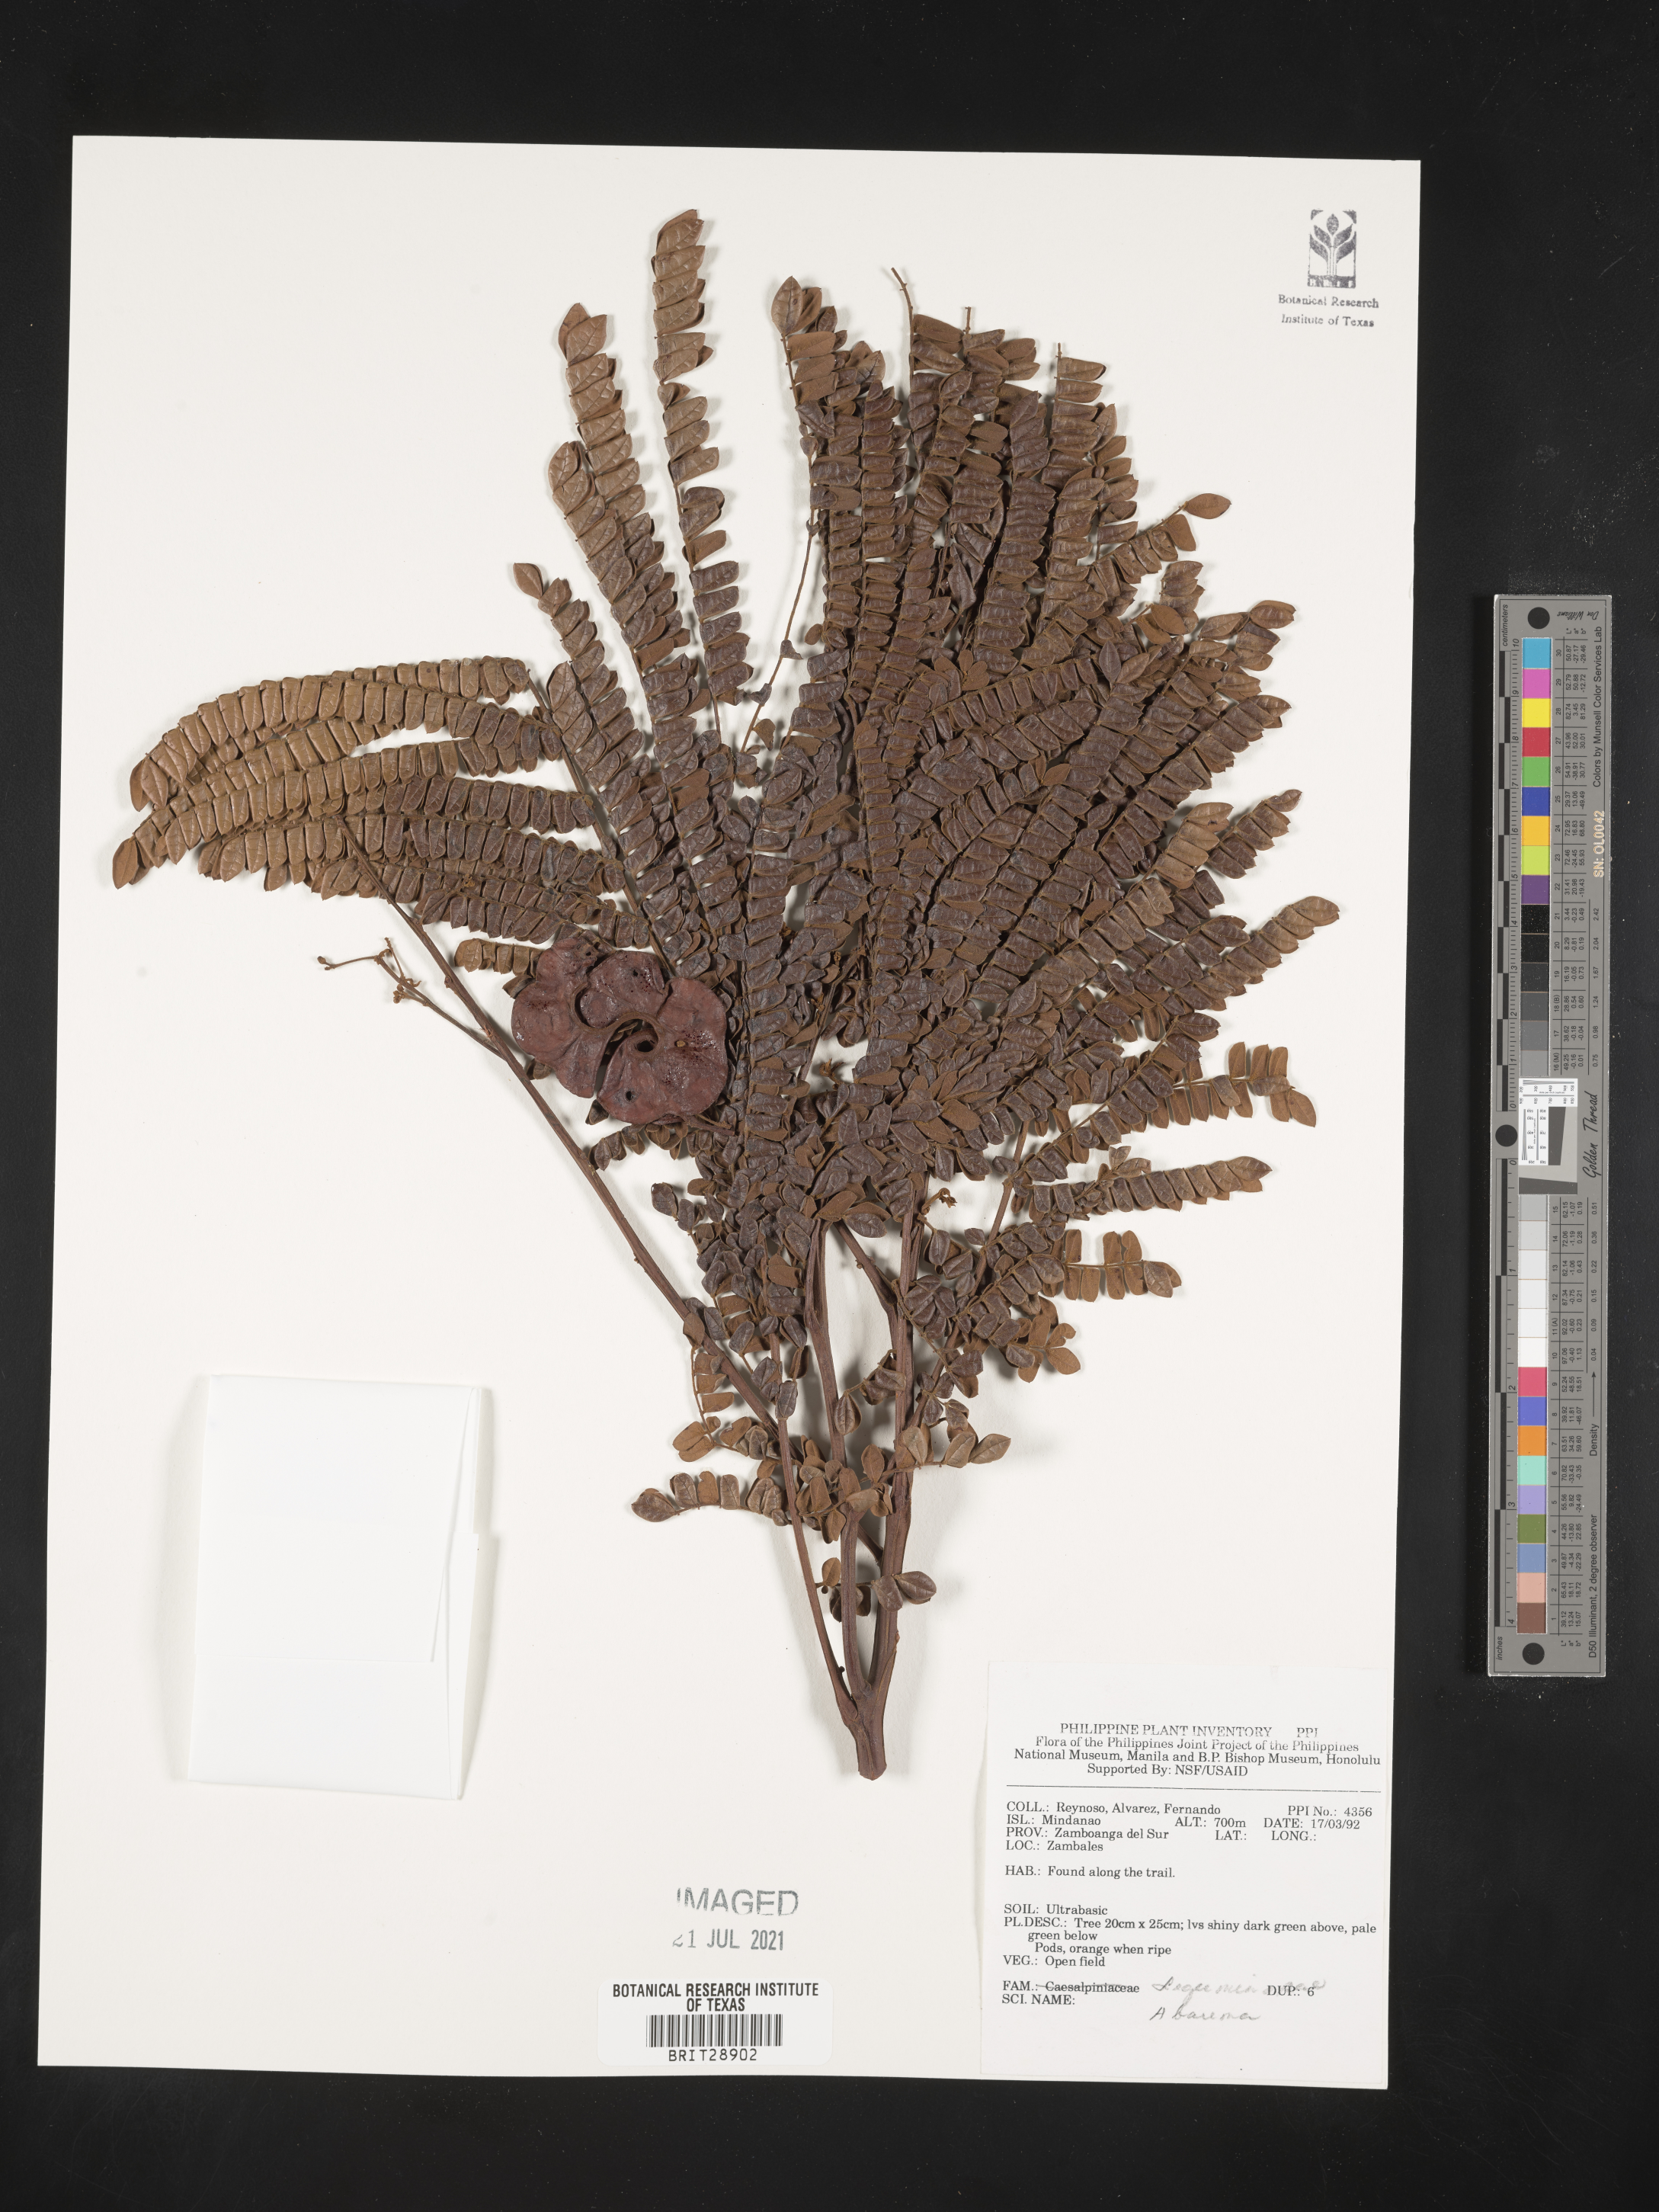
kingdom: Plantae
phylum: Tracheophyta
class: Magnoliopsida
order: Fabales
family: Fabaceae
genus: Abarema
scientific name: Abarema
